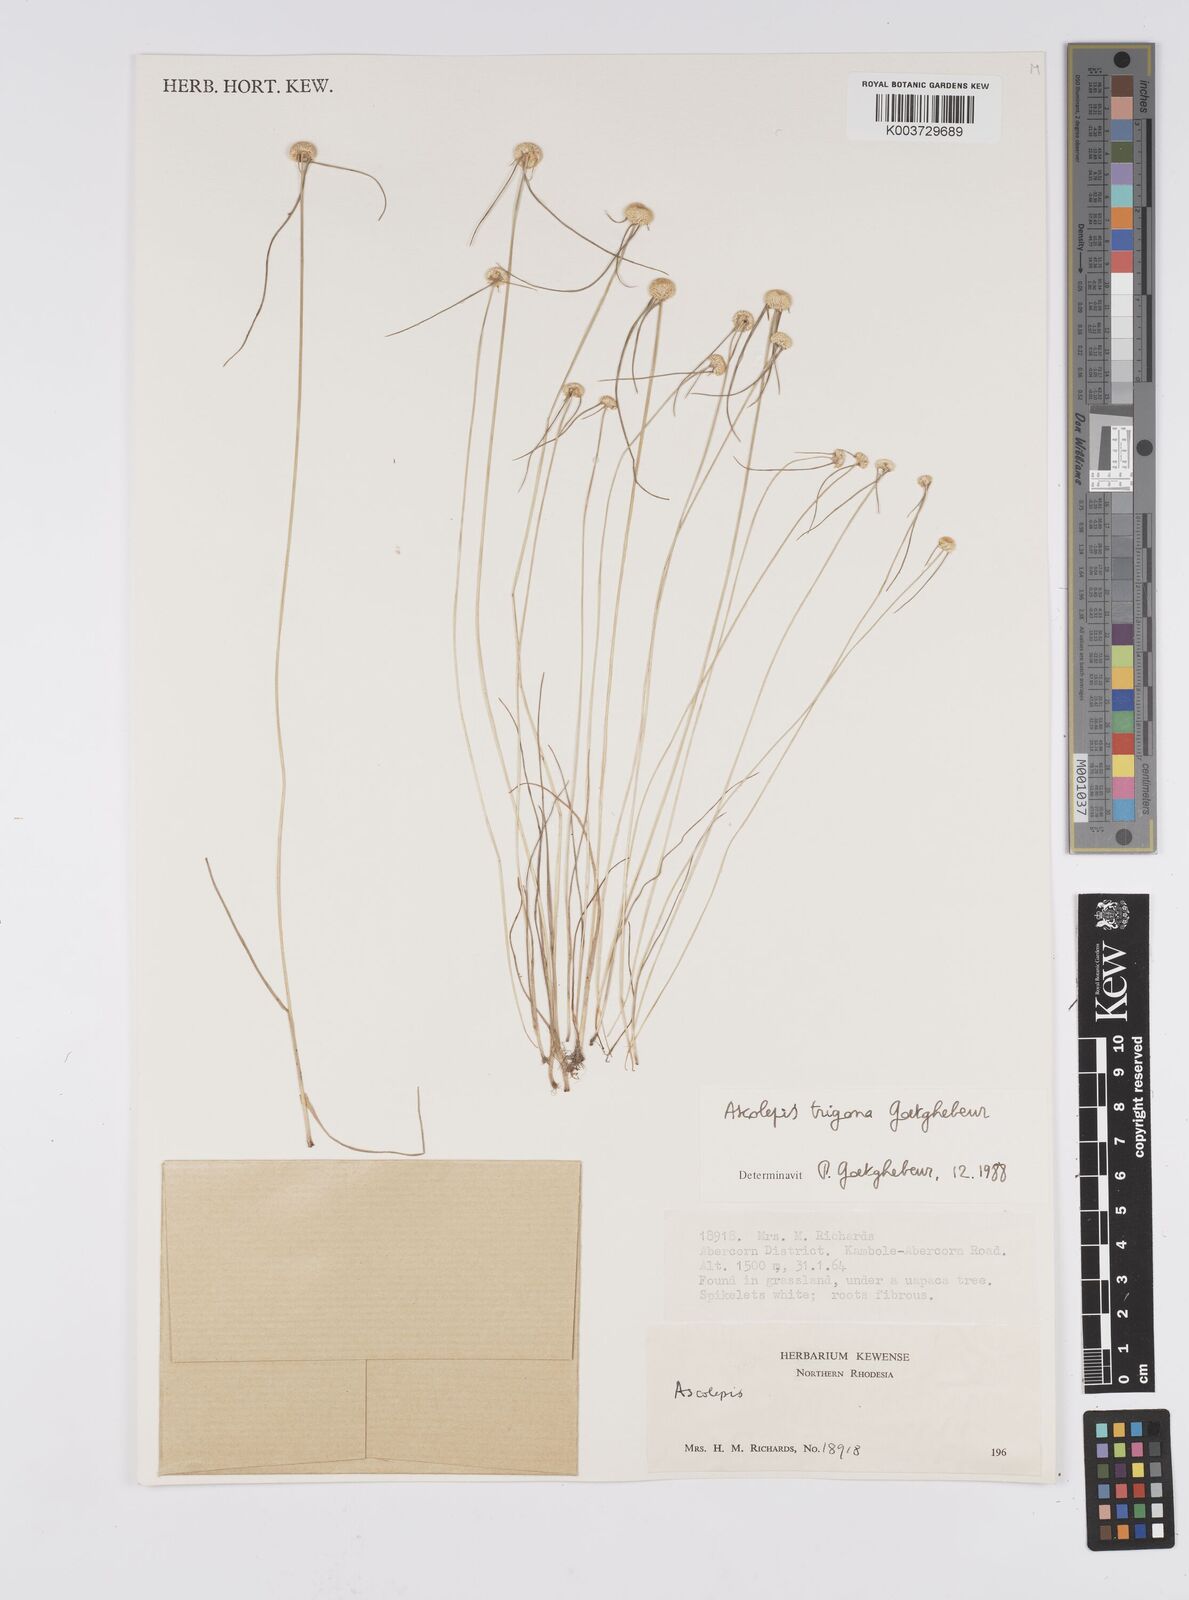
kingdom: Plantae
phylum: Tracheophyta
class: Liliopsida
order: Poales
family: Cyperaceae
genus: Cyperus
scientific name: Cyperus
